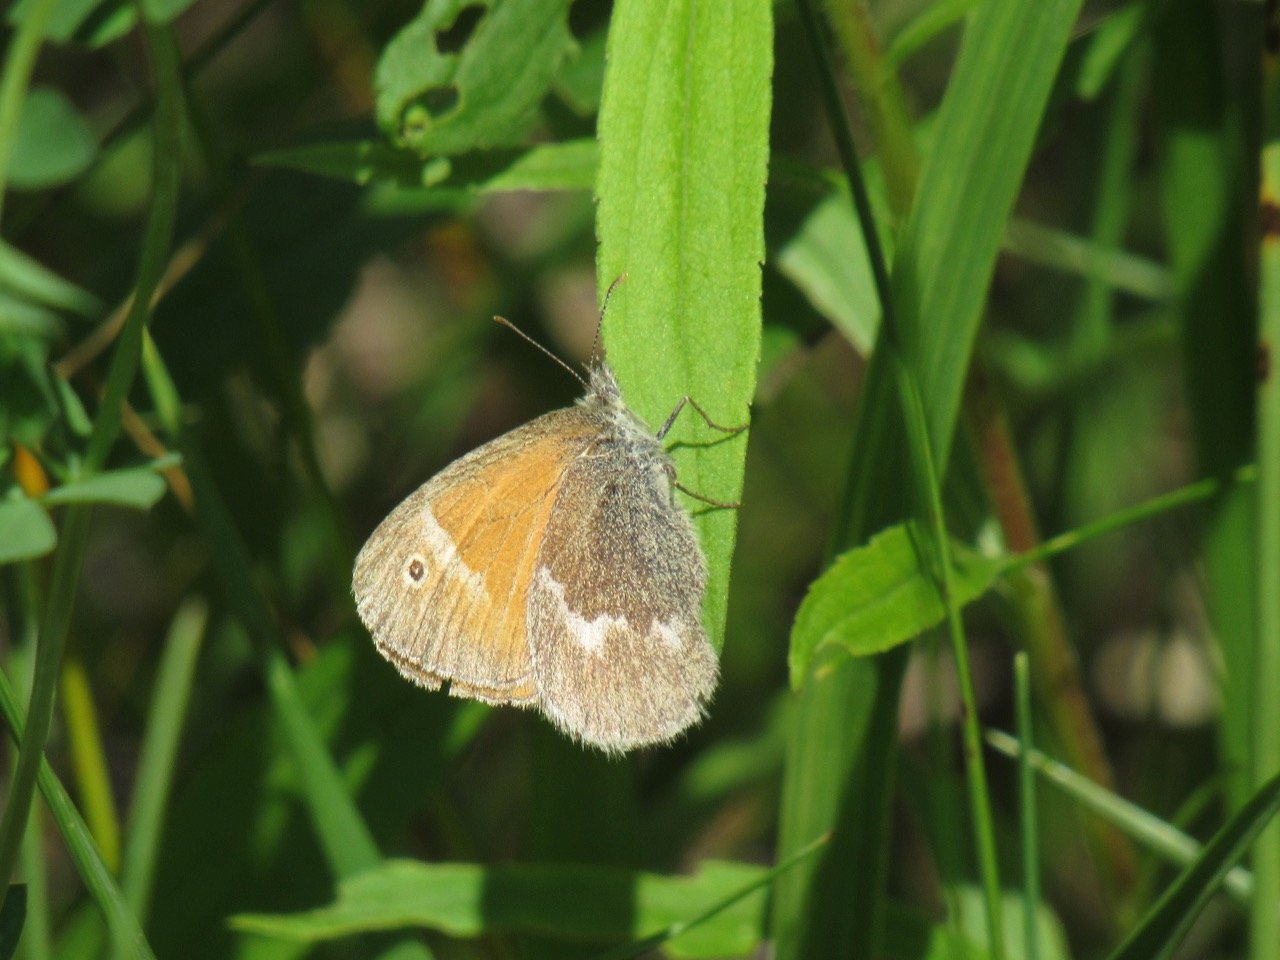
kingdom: Animalia
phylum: Arthropoda
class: Insecta
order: Lepidoptera
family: Nymphalidae
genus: Coenonympha
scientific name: Coenonympha tullia
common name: Large Heath
